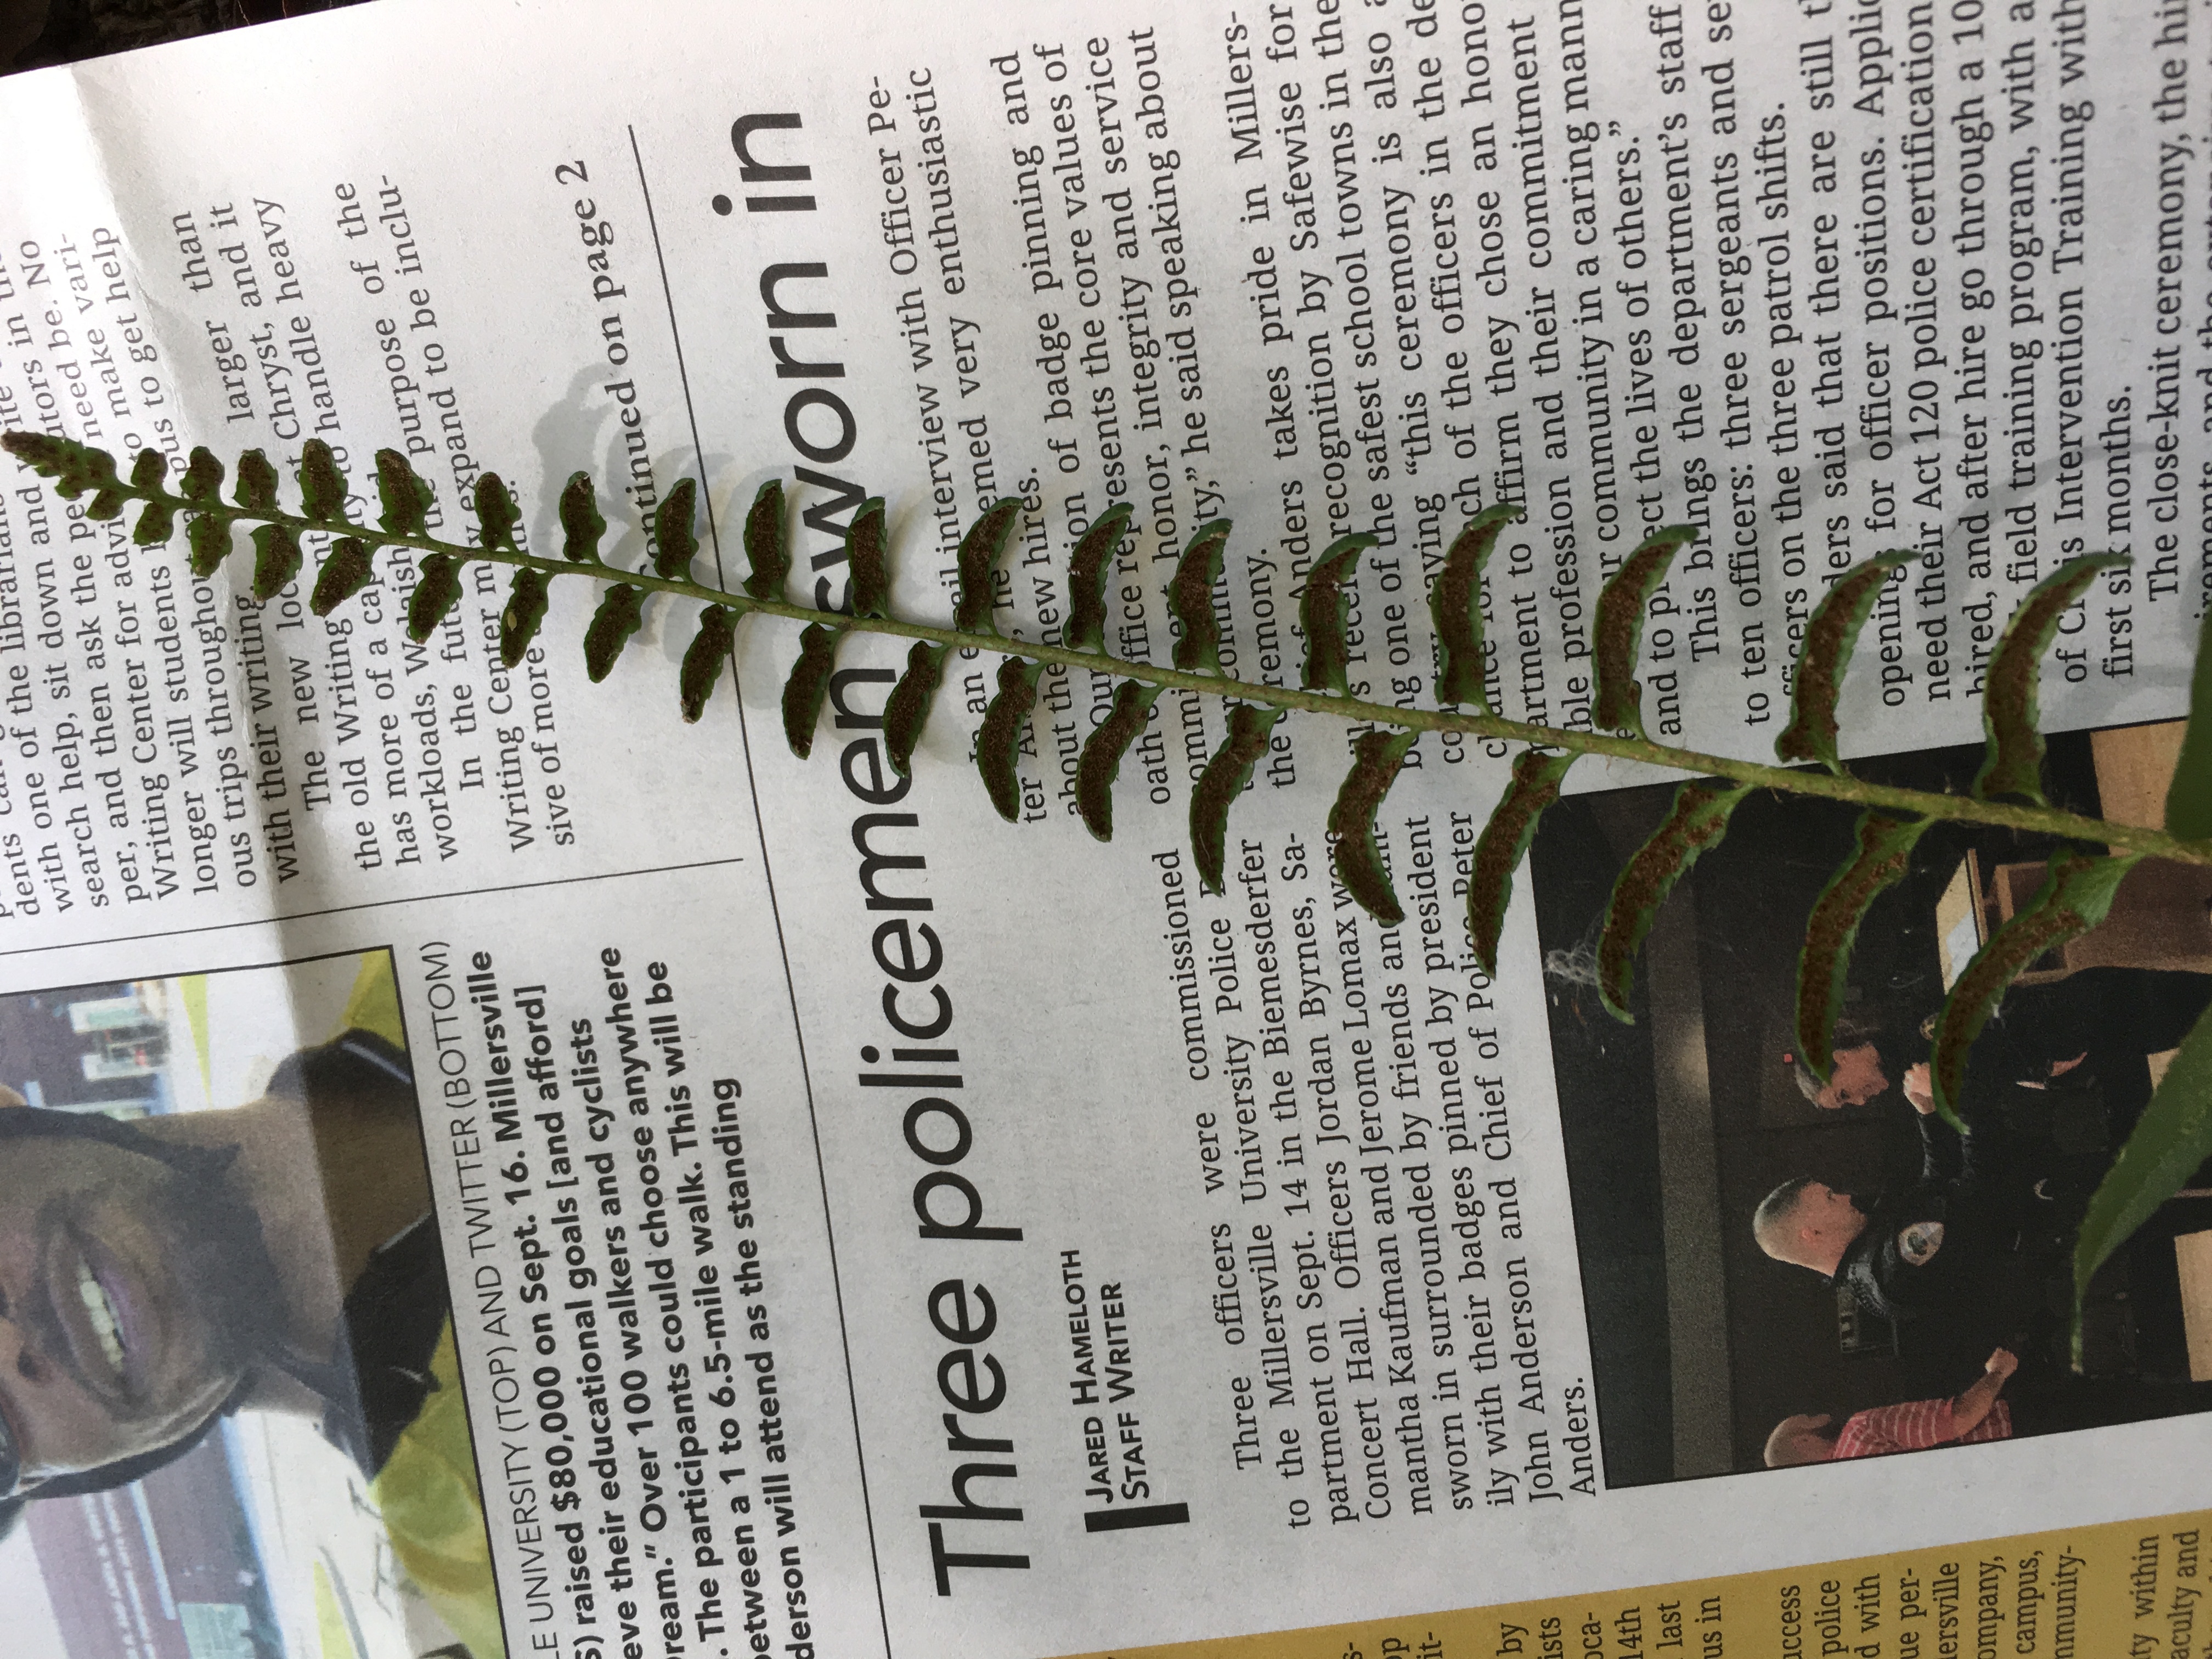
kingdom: Plantae
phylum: Tracheophyta
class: Polypodiopsida
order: Polypodiales
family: Dryopteridaceae
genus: Polystichum
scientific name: Polystichum acrostichoides
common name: Christmas Fern
